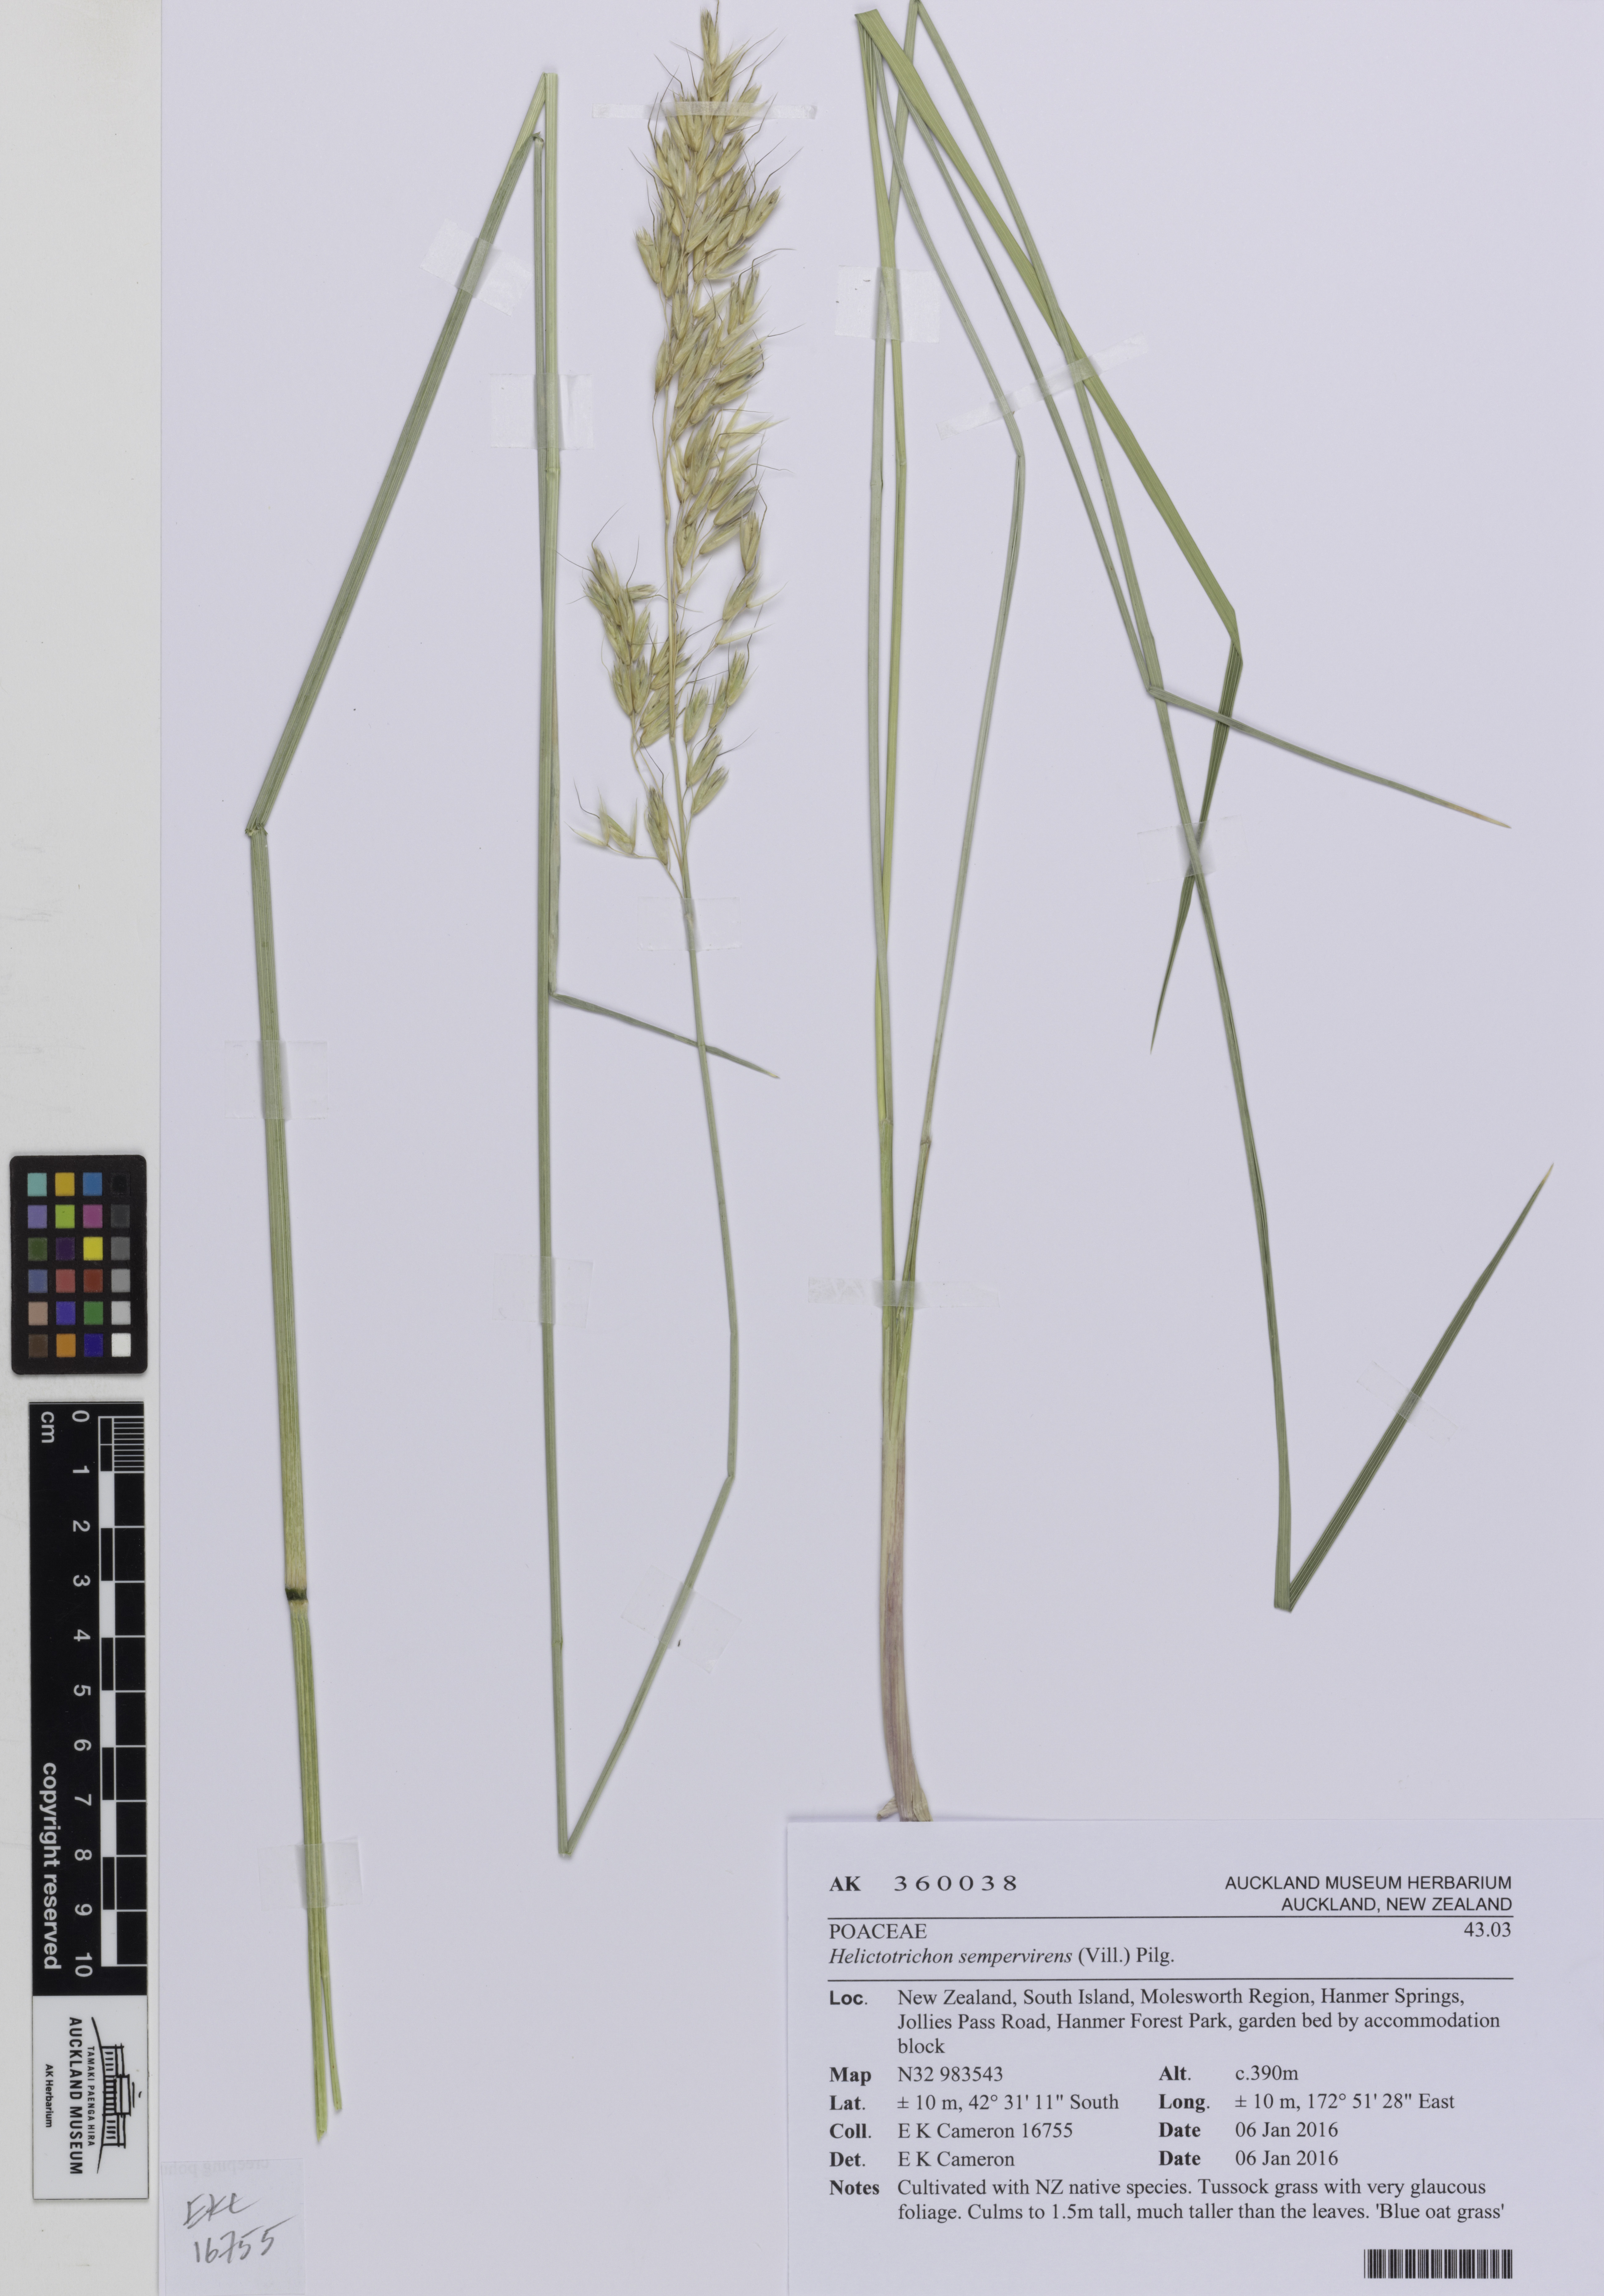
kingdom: Plantae
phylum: Tracheophyta
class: Liliopsida
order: Poales
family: Poaceae
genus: Helictotrichon
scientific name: Helictotrichon sempervirens
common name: Blue oat-grass
